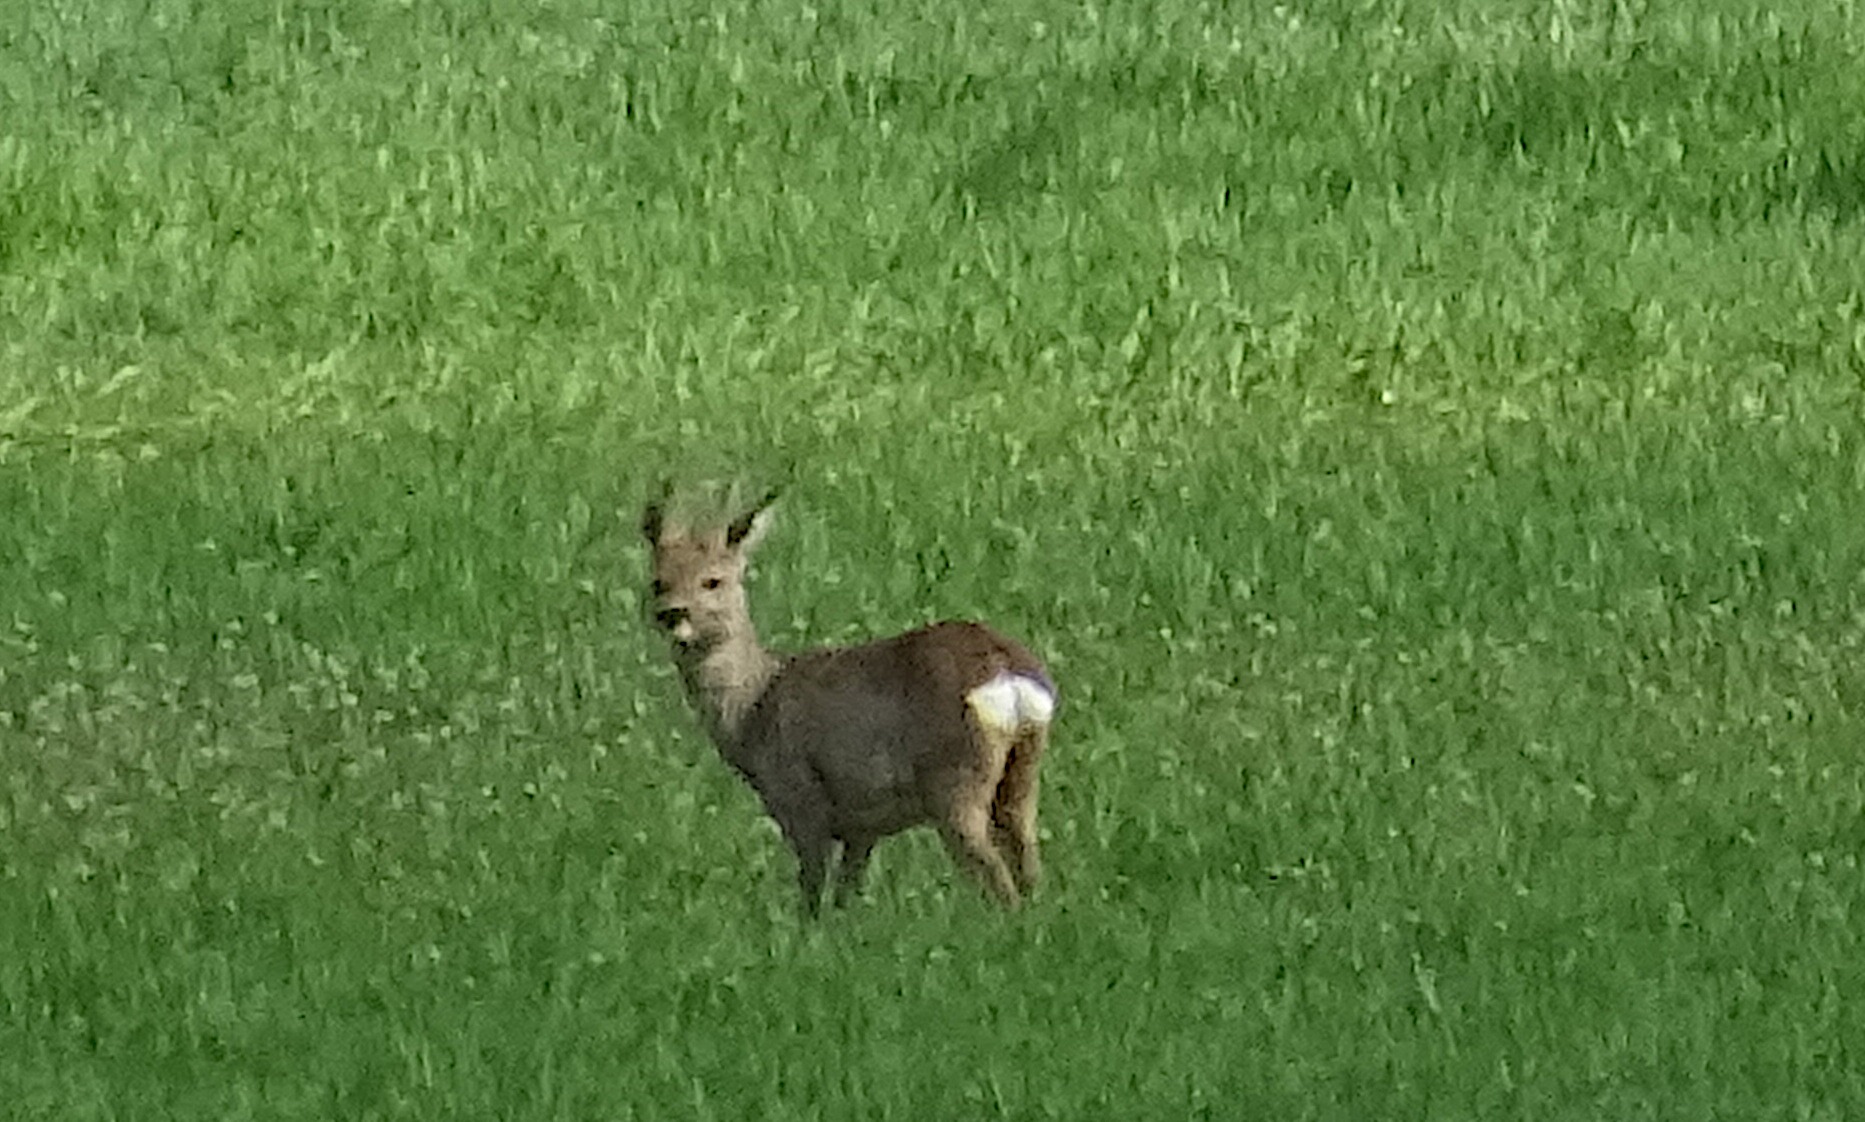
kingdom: Animalia
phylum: Chordata
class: Mammalia
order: Artiodactyla
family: Cervidae
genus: Capreolus
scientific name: Capreolus capreolus
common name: Rådyr
